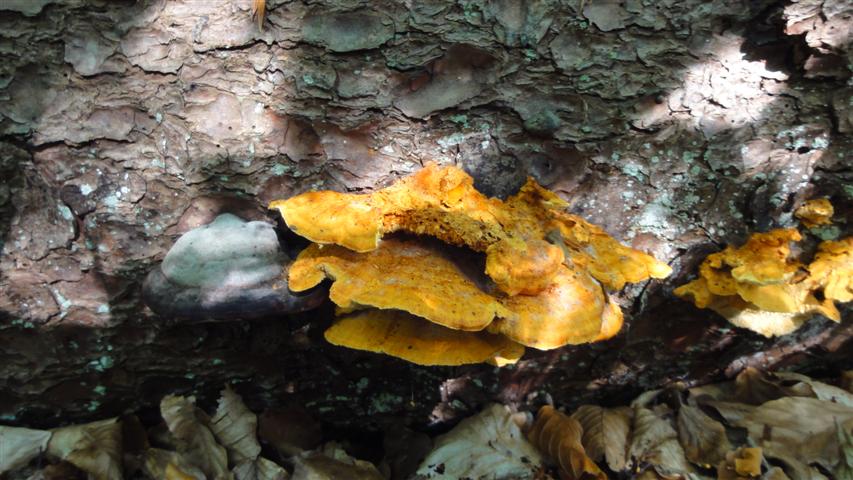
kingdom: Fungi
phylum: Basidiomycota
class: Agaricomycetes
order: Polyporales
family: Pycnoporellaceae
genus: Pycnoporellus
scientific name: Pycnoporellus fulgens
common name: flammeporesvamp
